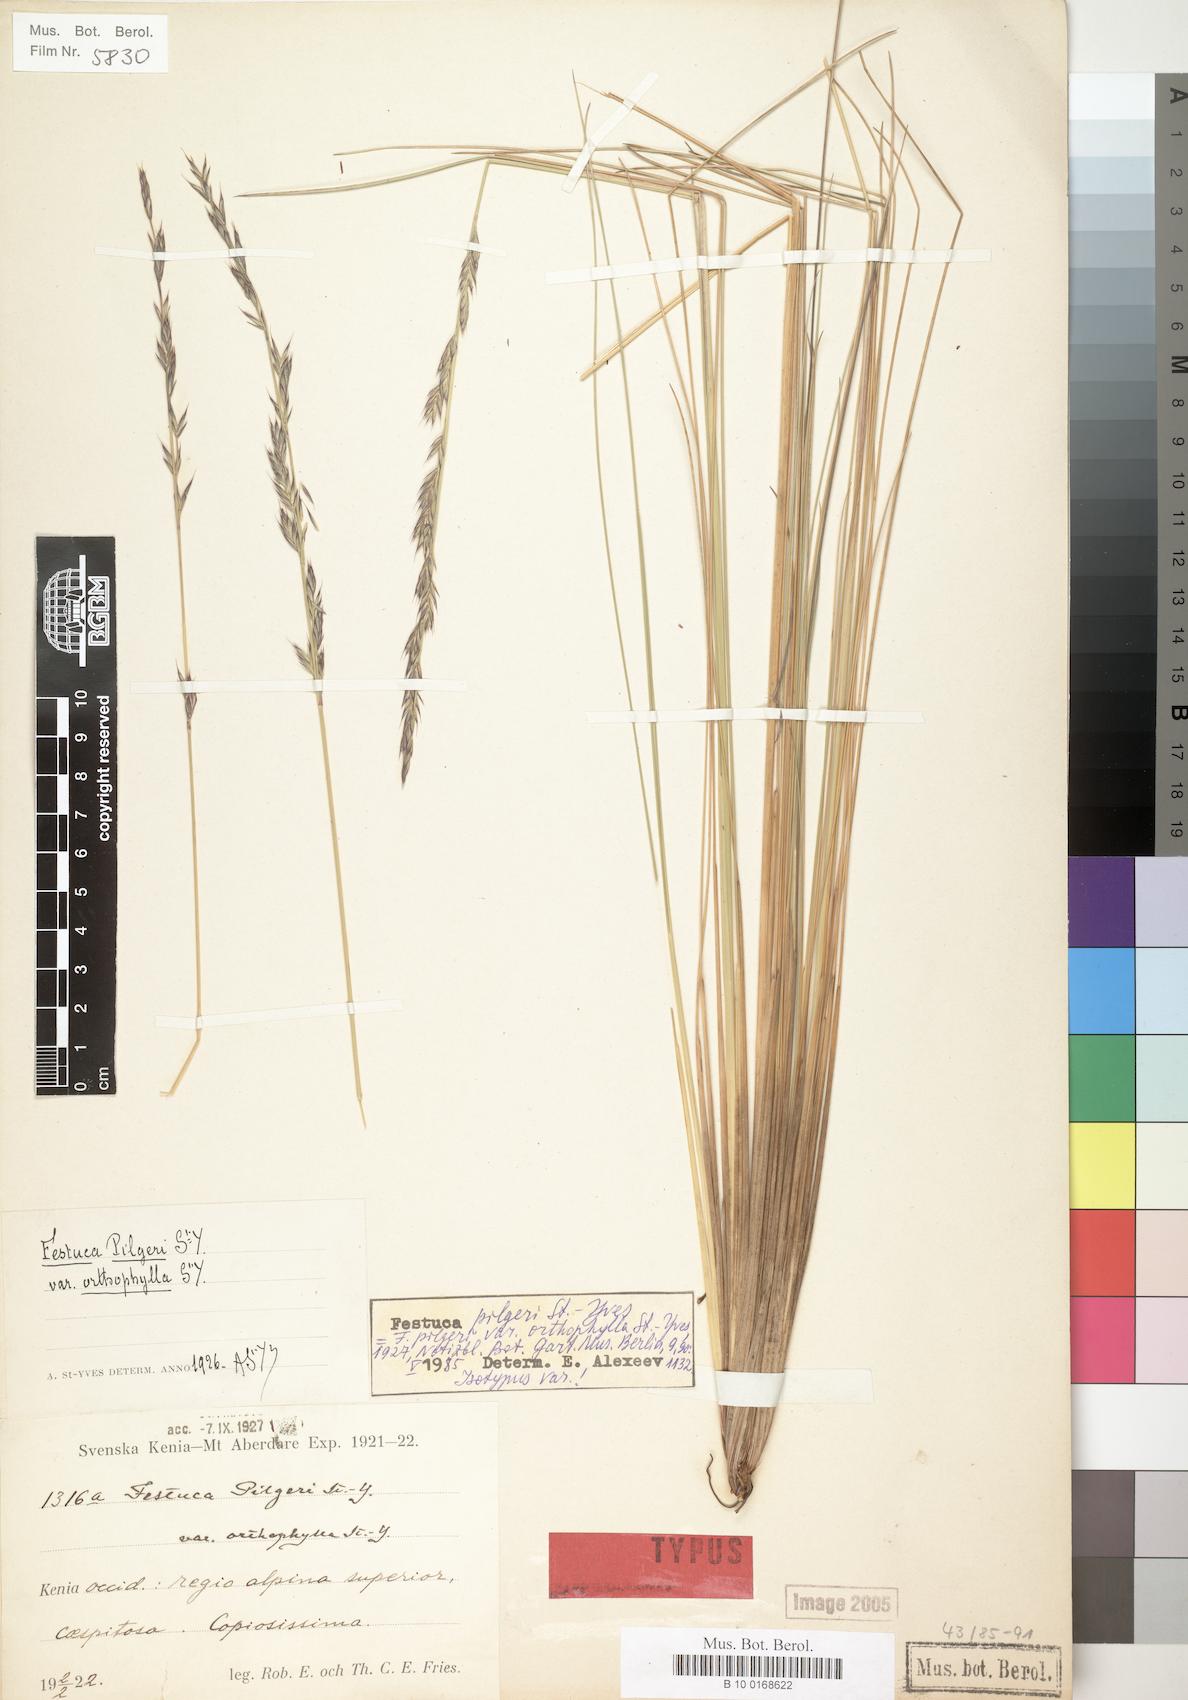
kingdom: Plantae
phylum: Tracheophyta
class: Liliopsida
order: Poales
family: Poaceae
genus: Festuca
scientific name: Festuca pilgeri
